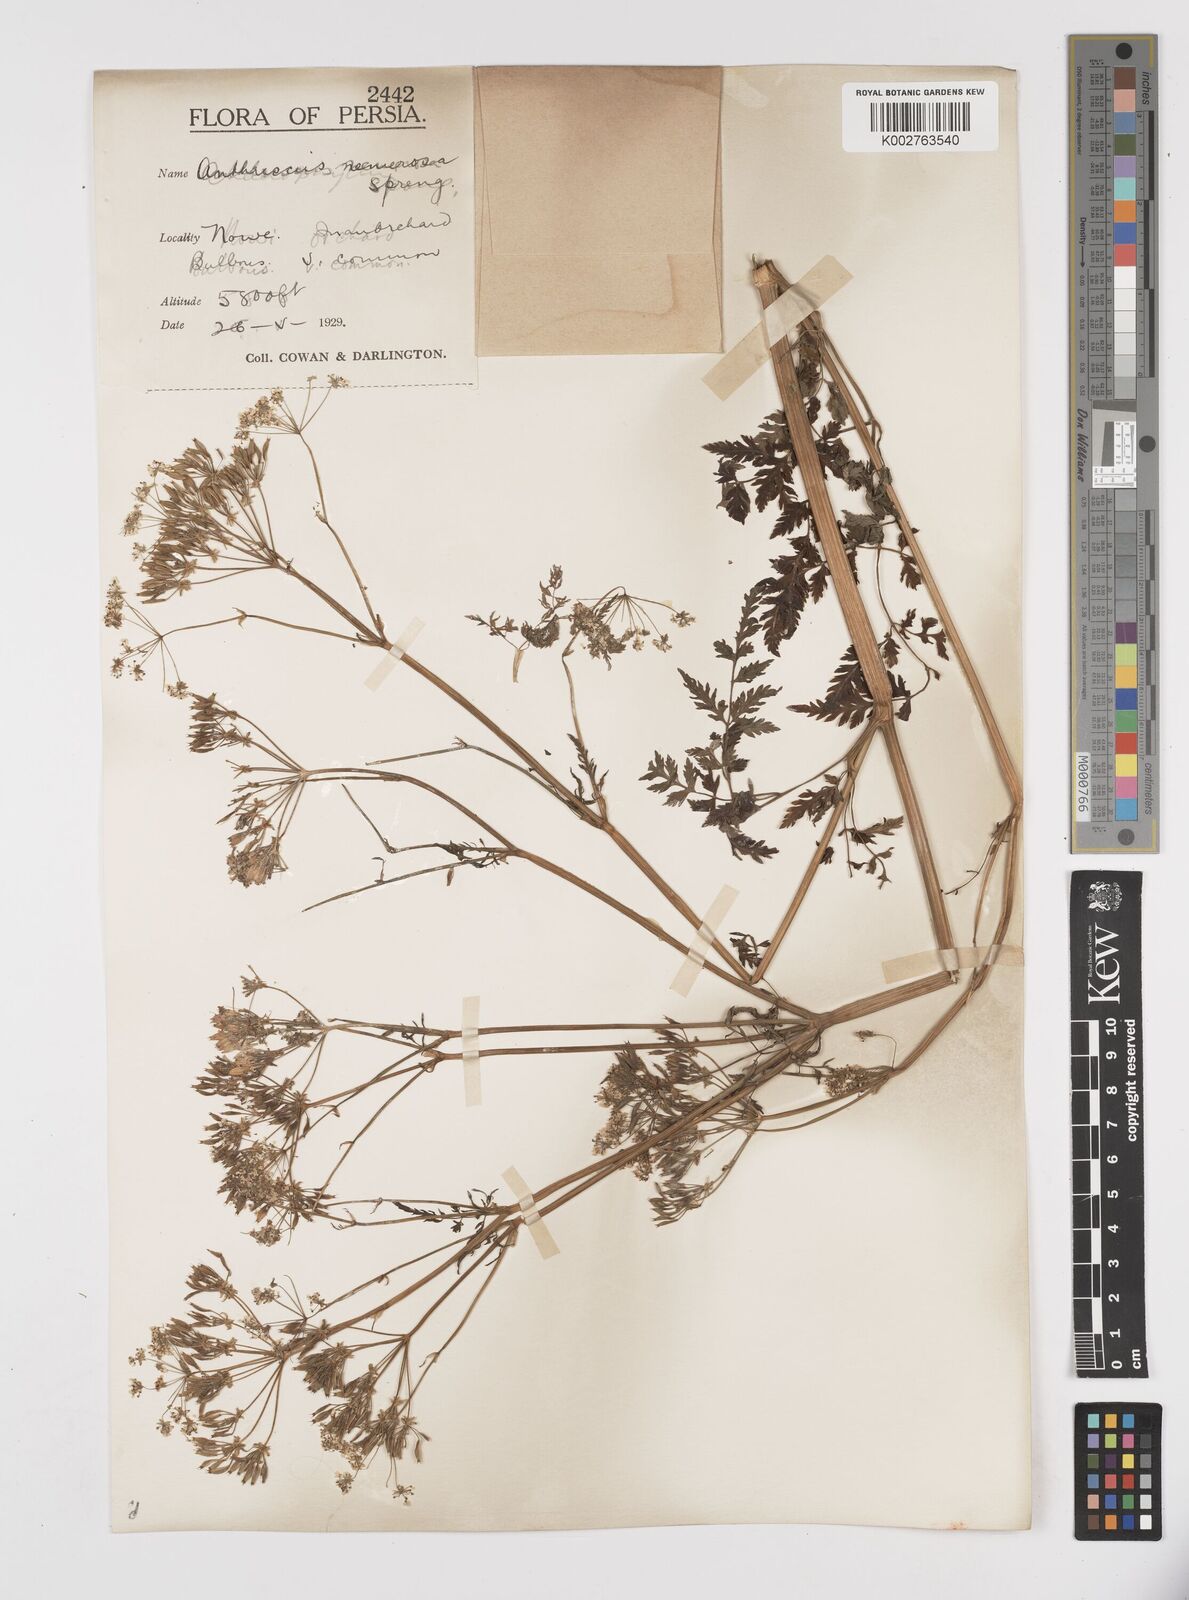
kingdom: Plantae
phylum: Tracheophyta
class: Magnoliopsida
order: Apiales
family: Apiaceae
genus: Anthriscus
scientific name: Anthriscus sylvestris
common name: Cow parsley
